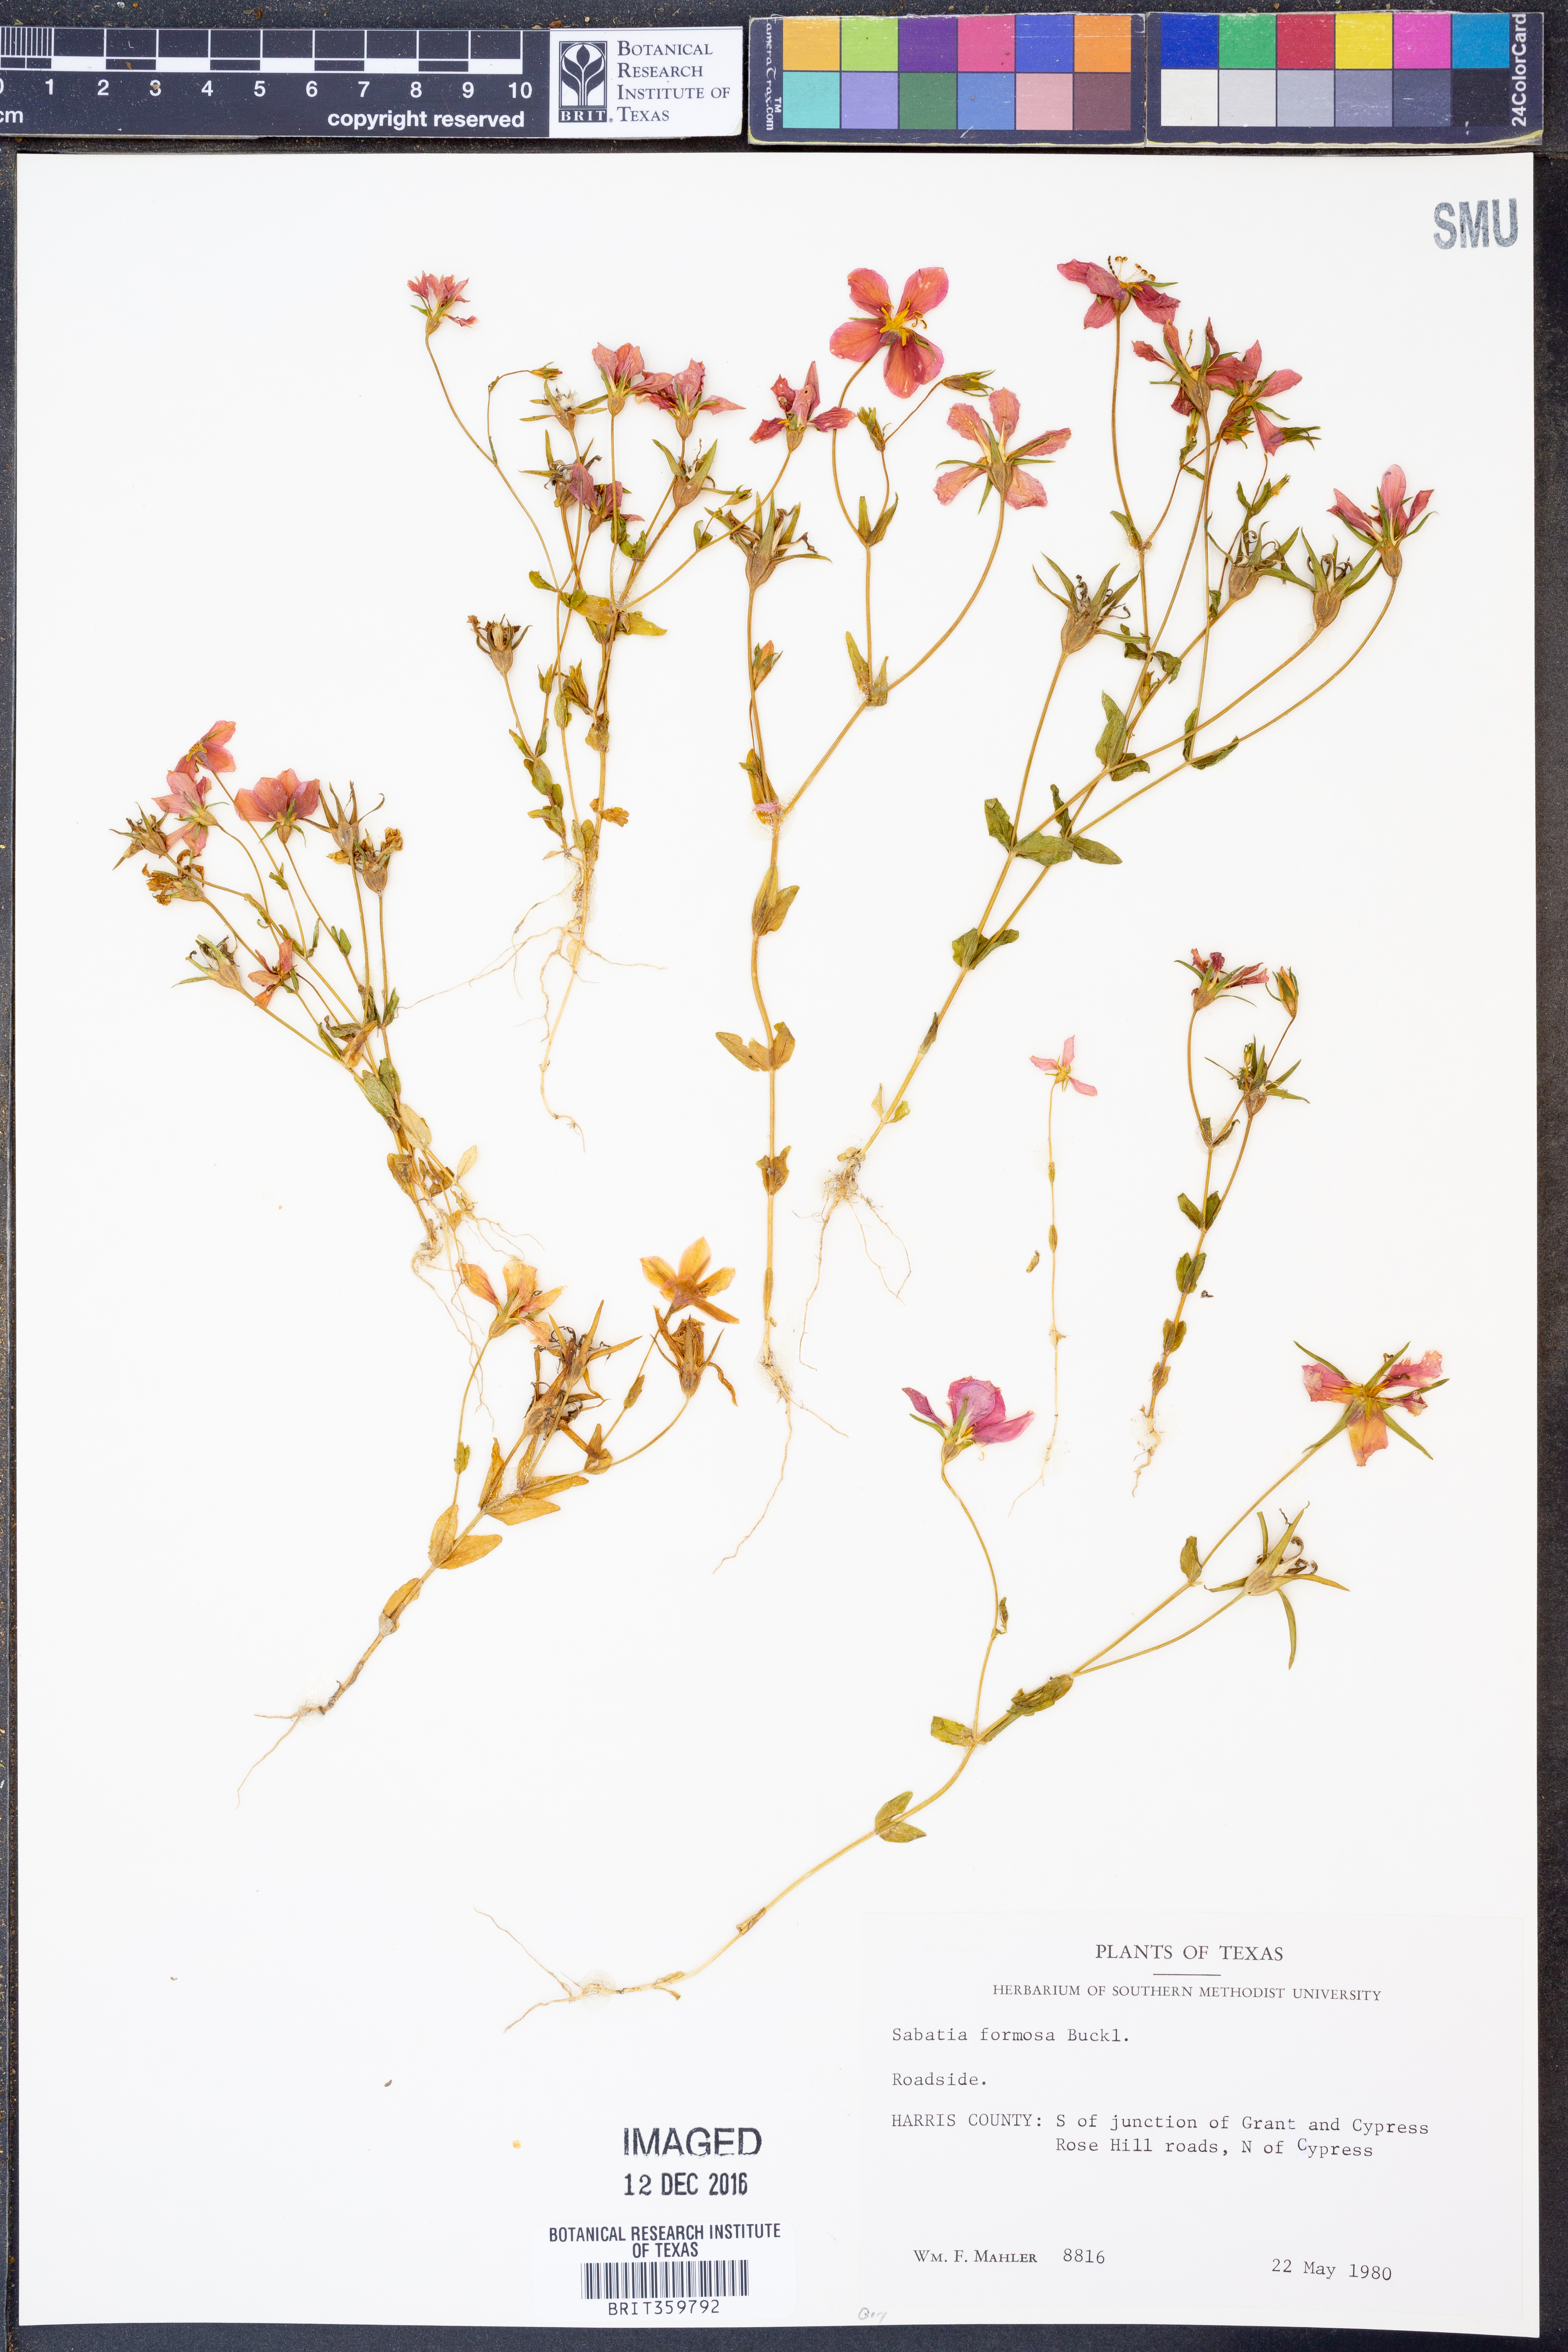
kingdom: Plantae
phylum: Tracheophyta
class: Magnoliopsida
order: Gentianales
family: Gentianaceae
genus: Sabatia
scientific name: Sabatia formosa
